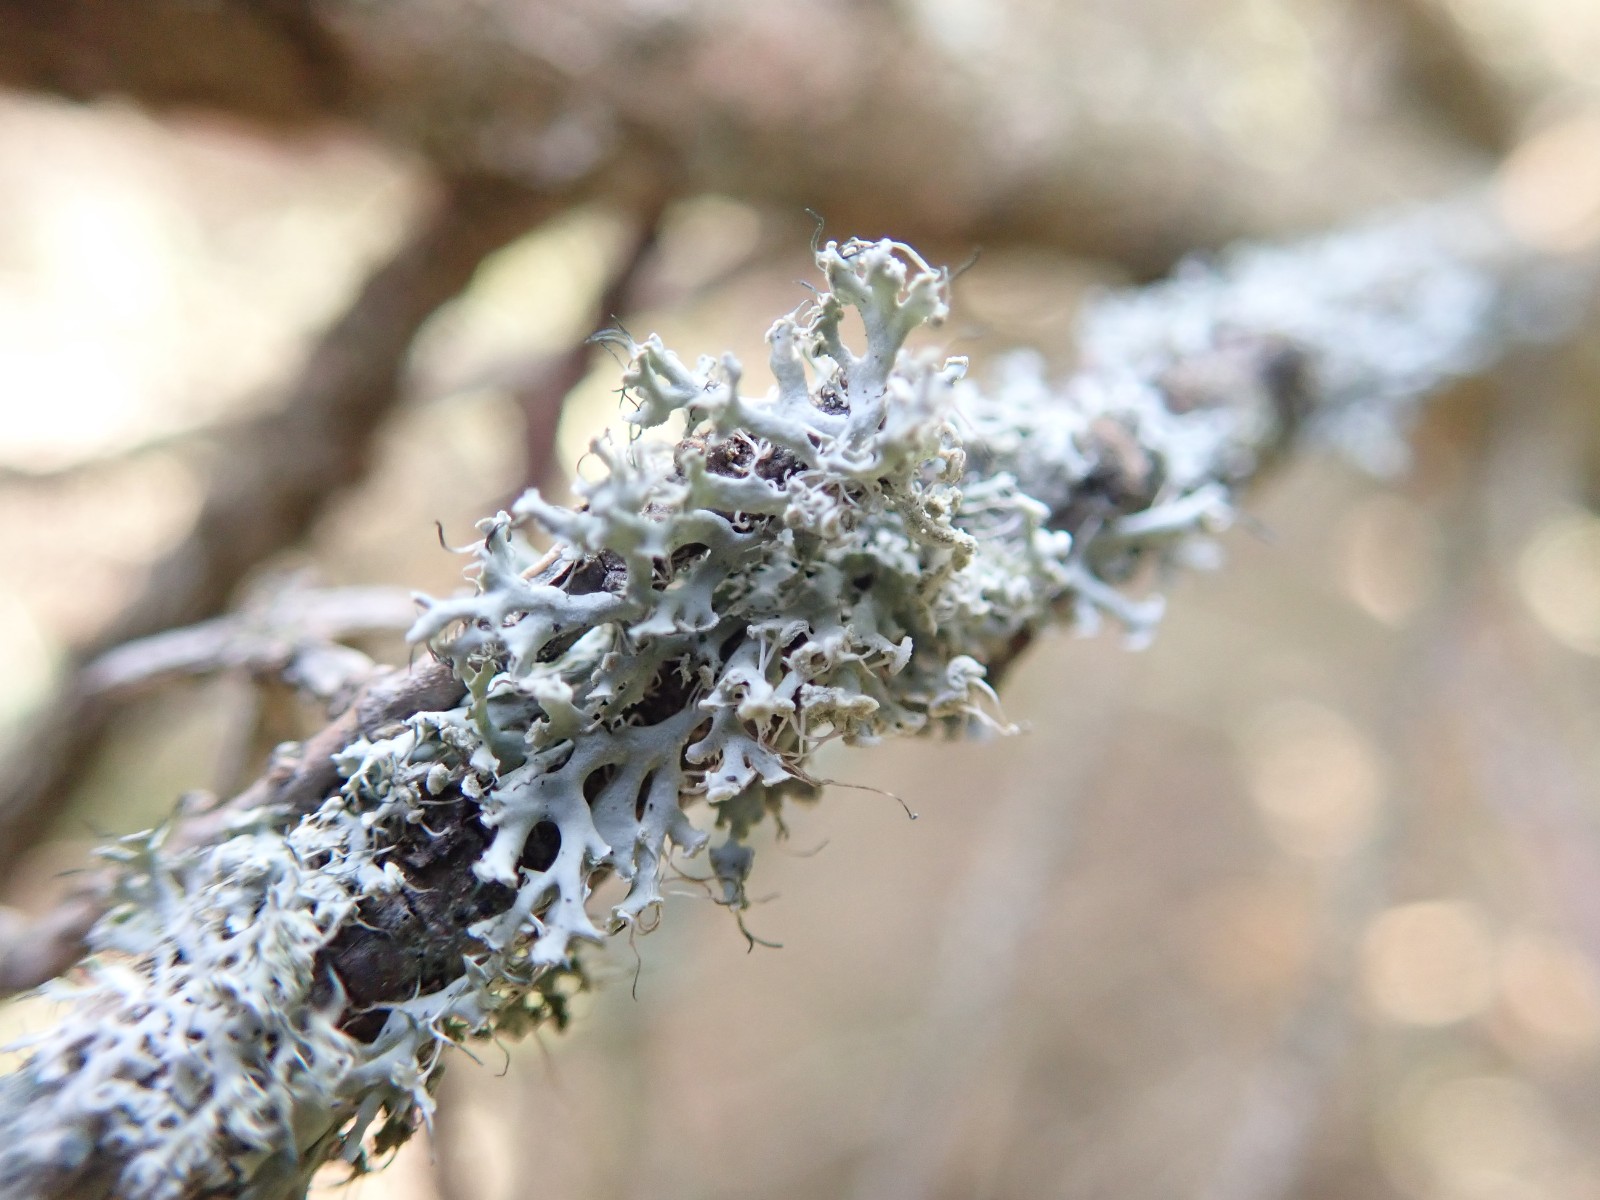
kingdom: Fungi
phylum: Ascomycota
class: Lecanoromycetes
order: Caliciales
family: Physciaceae
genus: Physcia
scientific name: Physcia tenella
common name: spæd rosetlav
